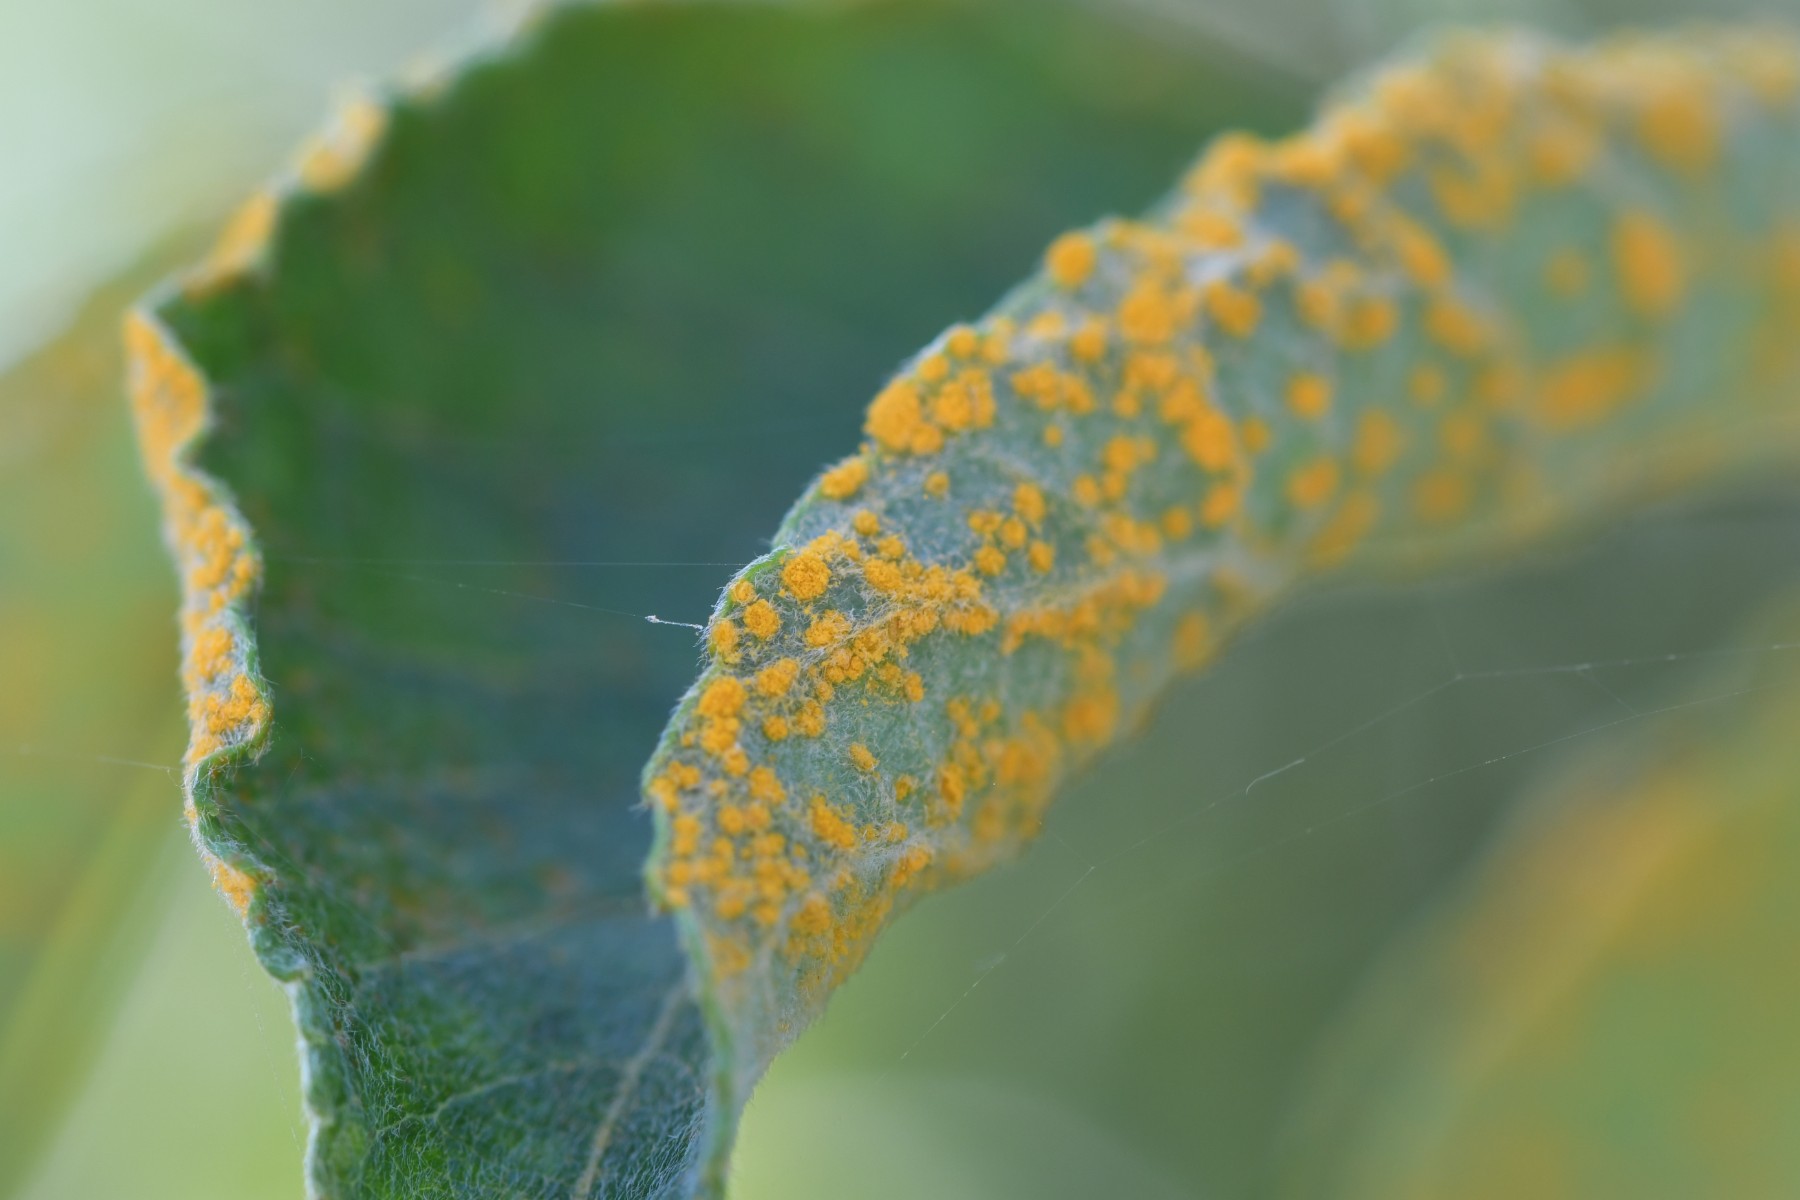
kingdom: Fungi
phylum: Basidiomycota
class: Pucciniomycetes
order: Pucciniales
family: Melampsoraceae
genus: Melampsora
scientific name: Melampsora
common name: skorperust
